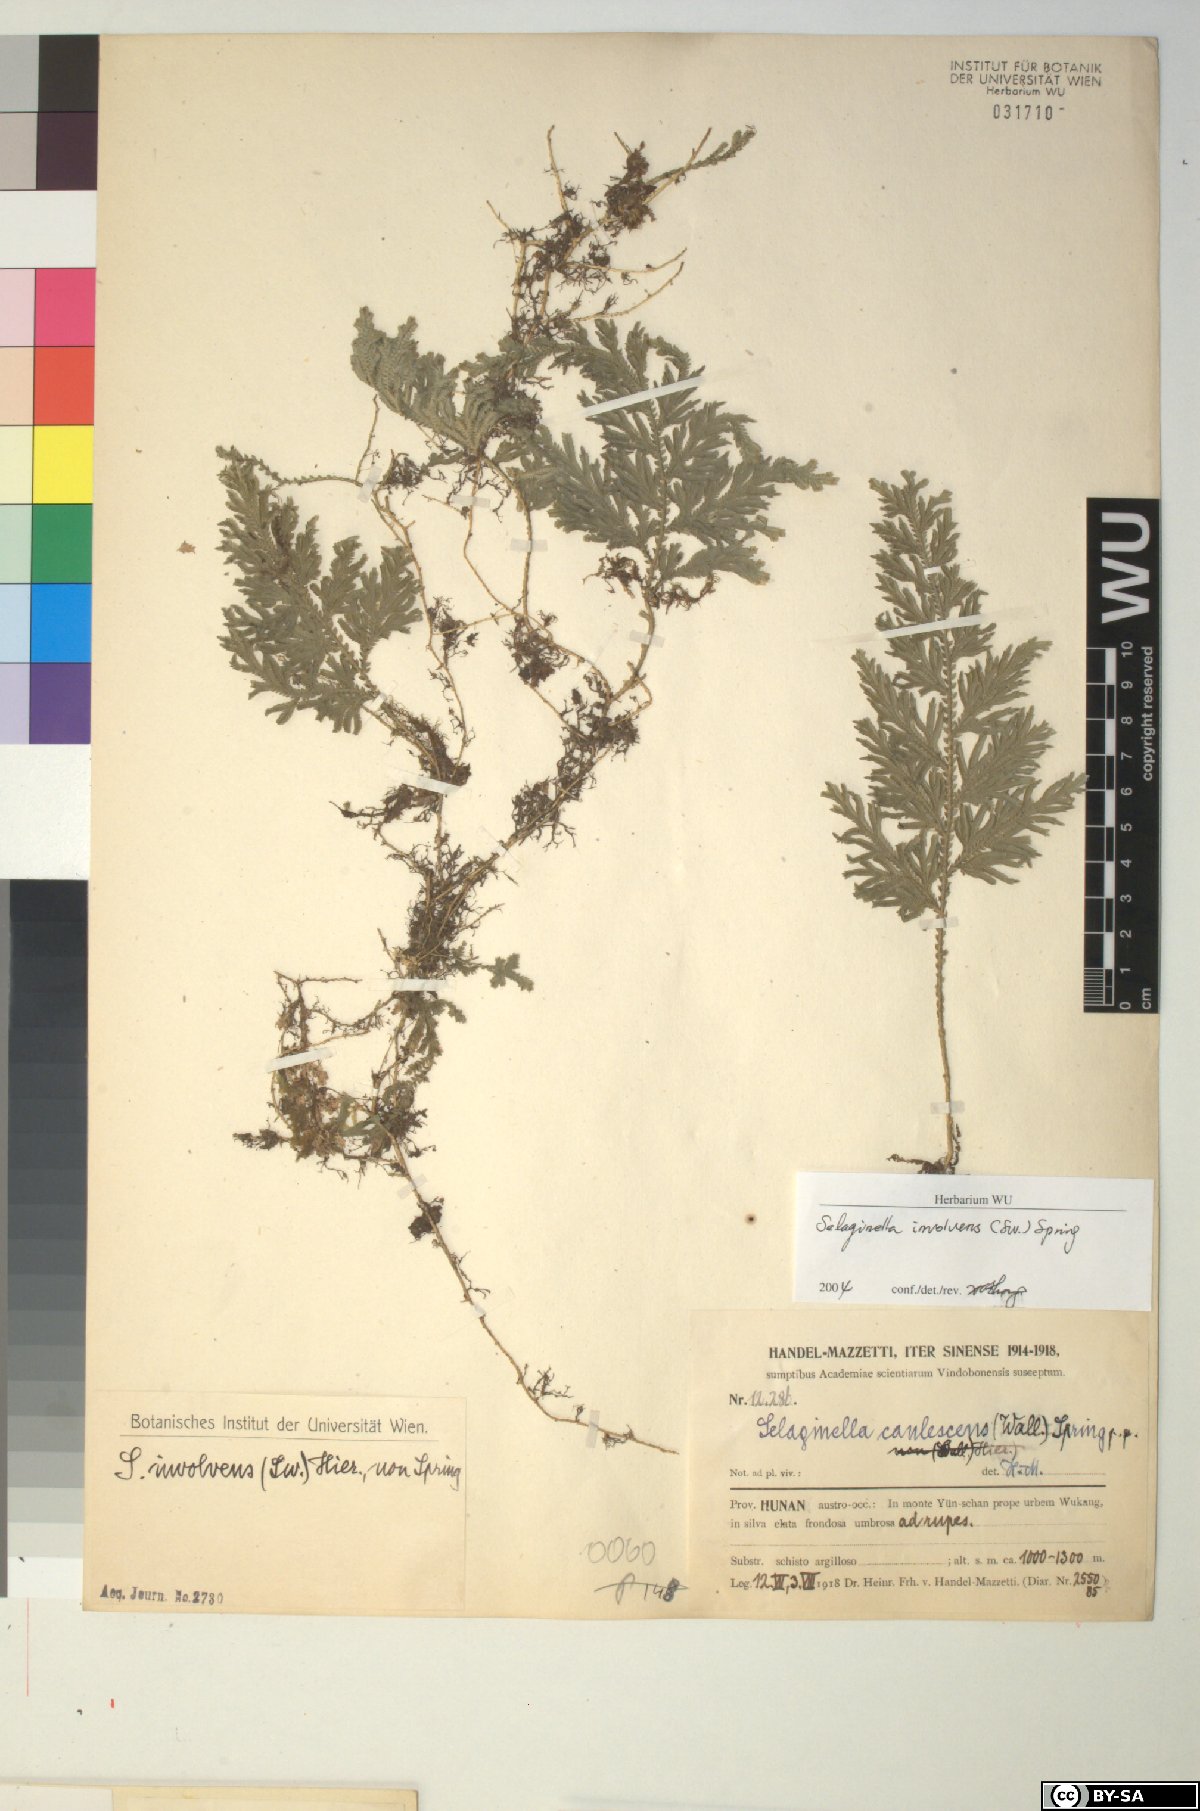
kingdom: Plantae
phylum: Tracheophyta
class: Lycopodiopsida
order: Selaginellales
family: Selaginellaceae
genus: Selaginella
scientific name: Selaginella involvens
